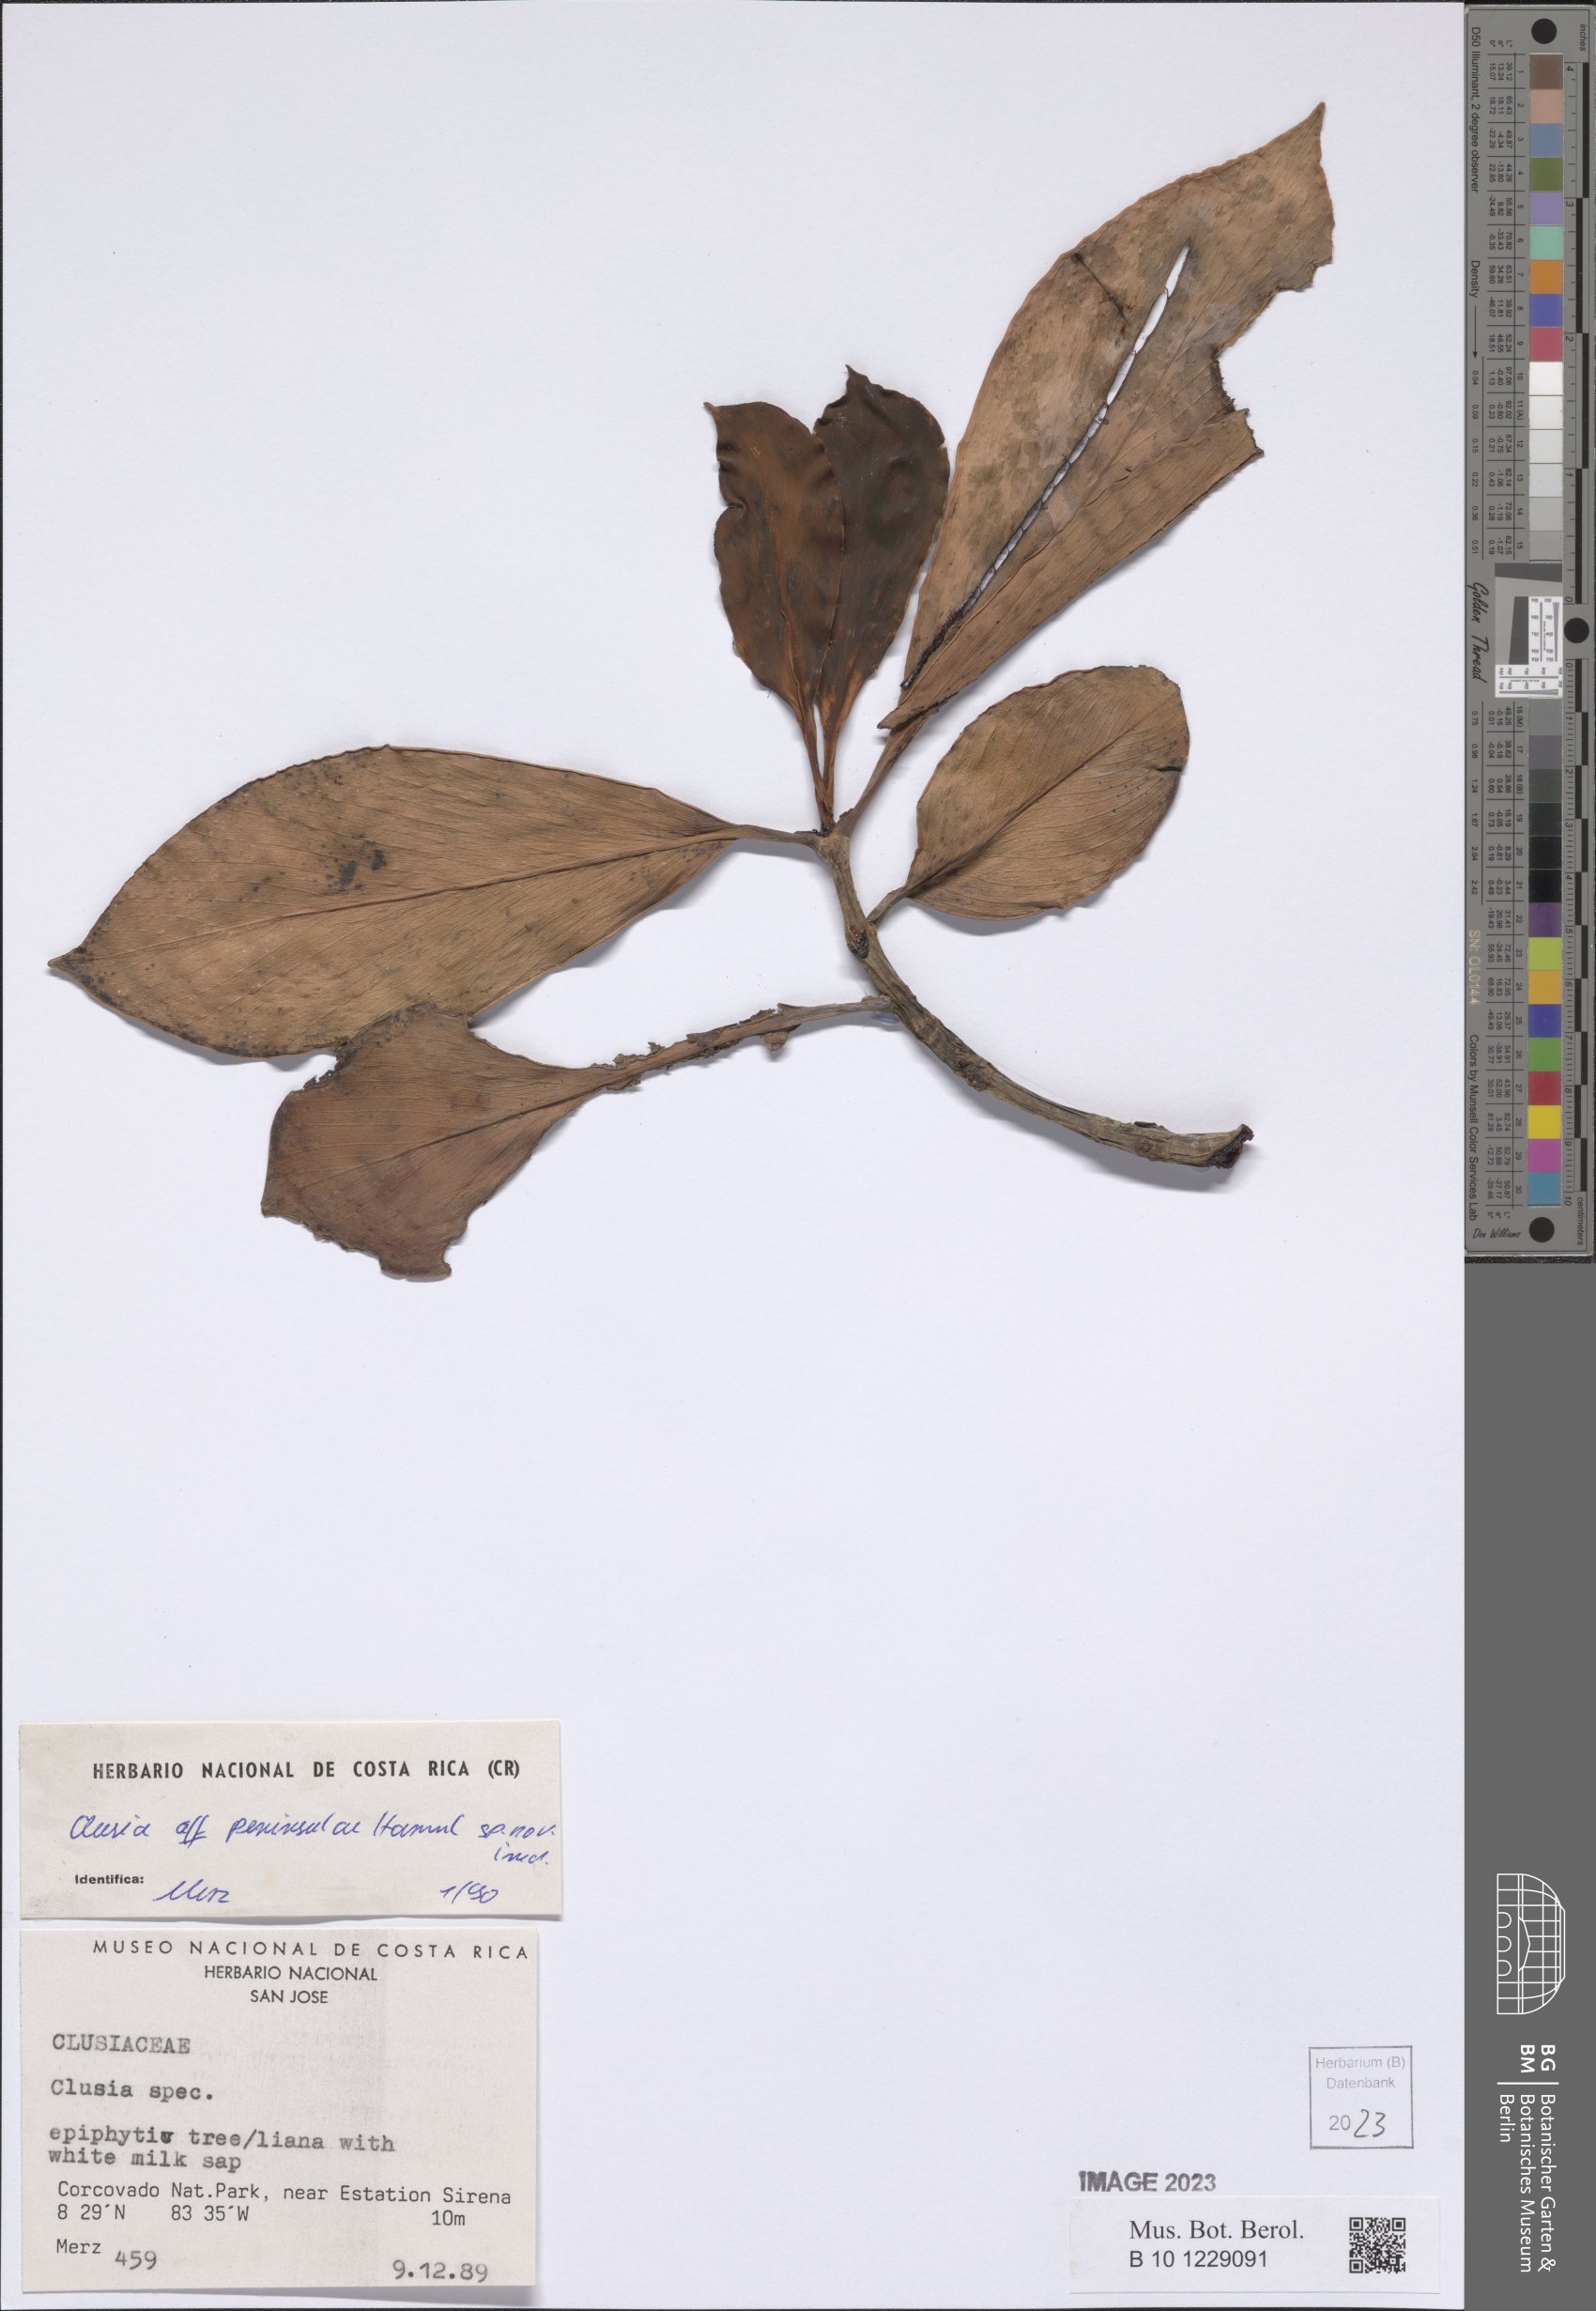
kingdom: Plantae
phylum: Tracheophyta
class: Magnoliopsida
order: Malpighiales
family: Clusiaceae
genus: Clusia
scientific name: Clusia peninsulae
